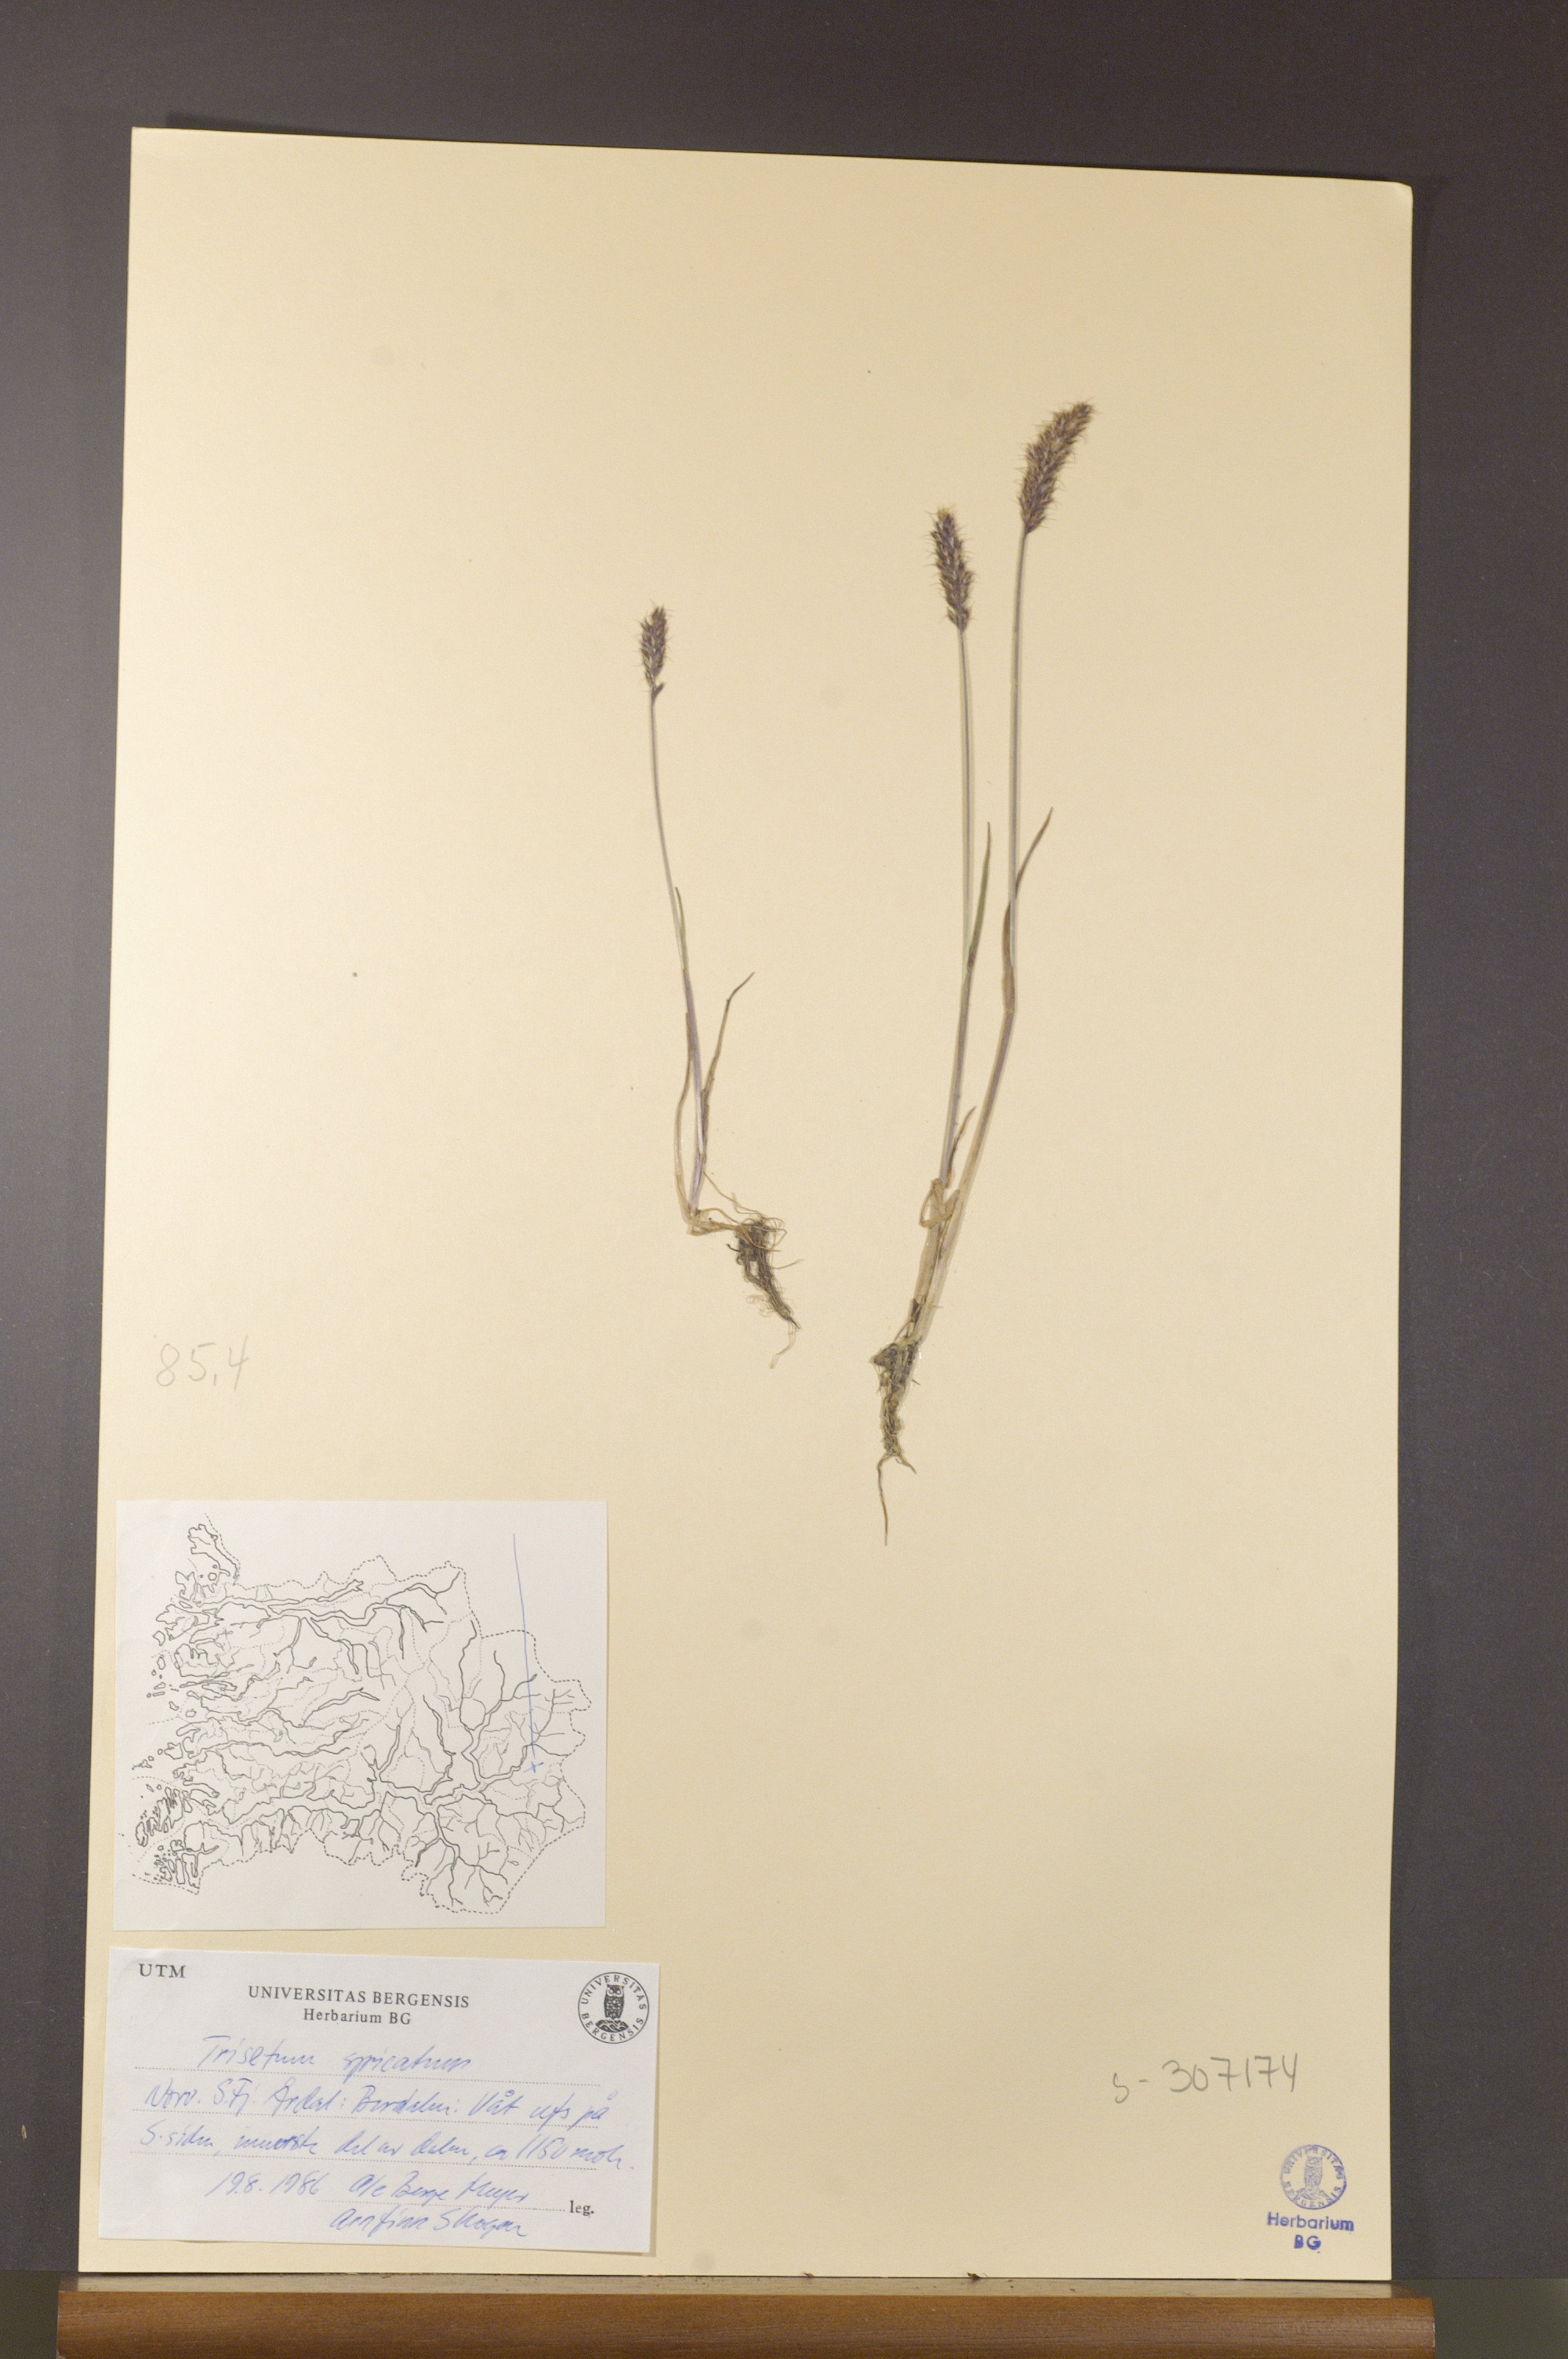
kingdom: Plantae
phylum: Tracheophyta
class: Liliopsida
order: Poales
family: Poaceae
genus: Koeleria
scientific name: Koeleria spicata
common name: Mountain trisetum
